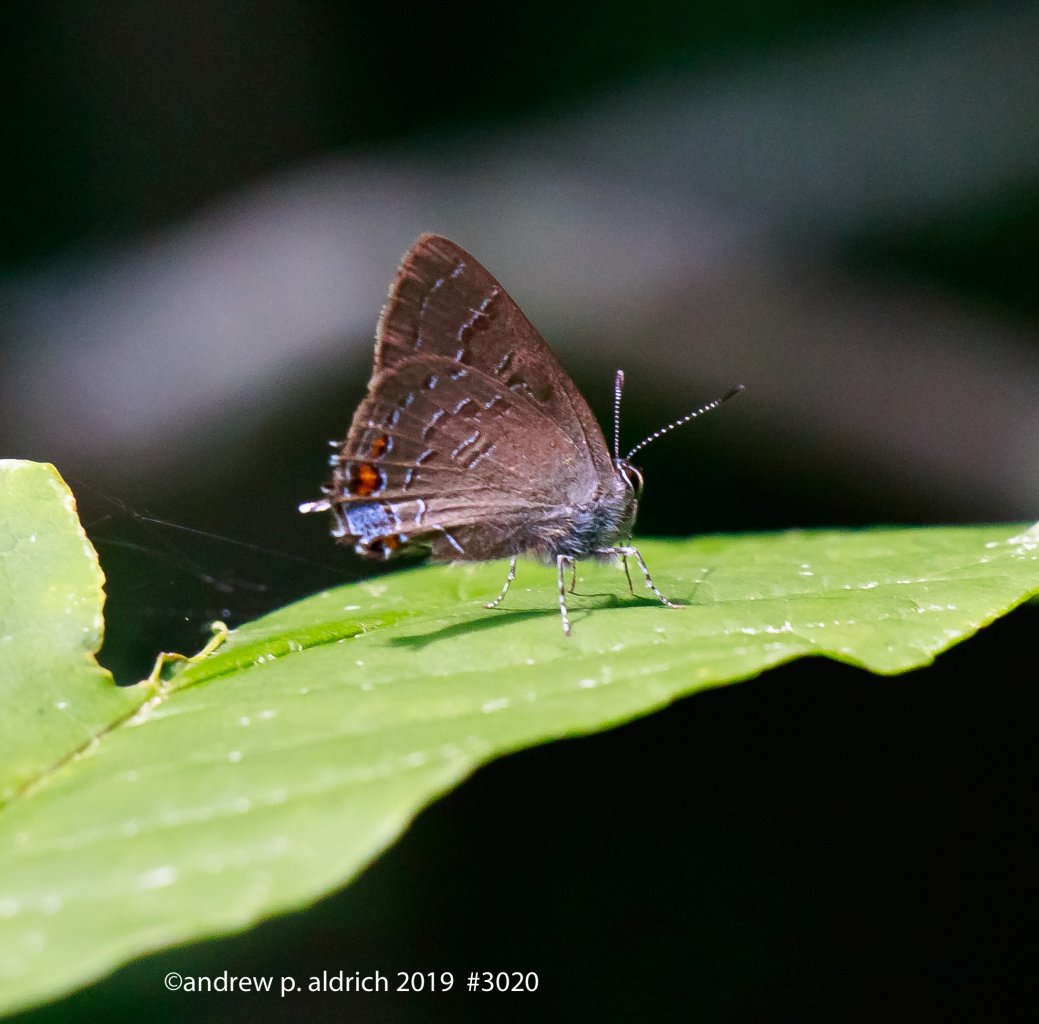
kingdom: Animalia
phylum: Arthropoda
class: Insecta
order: Lepidoptera
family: Lycaenidae
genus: Satyrium
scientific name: Satyrium calanus
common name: Banded Hairstreak
